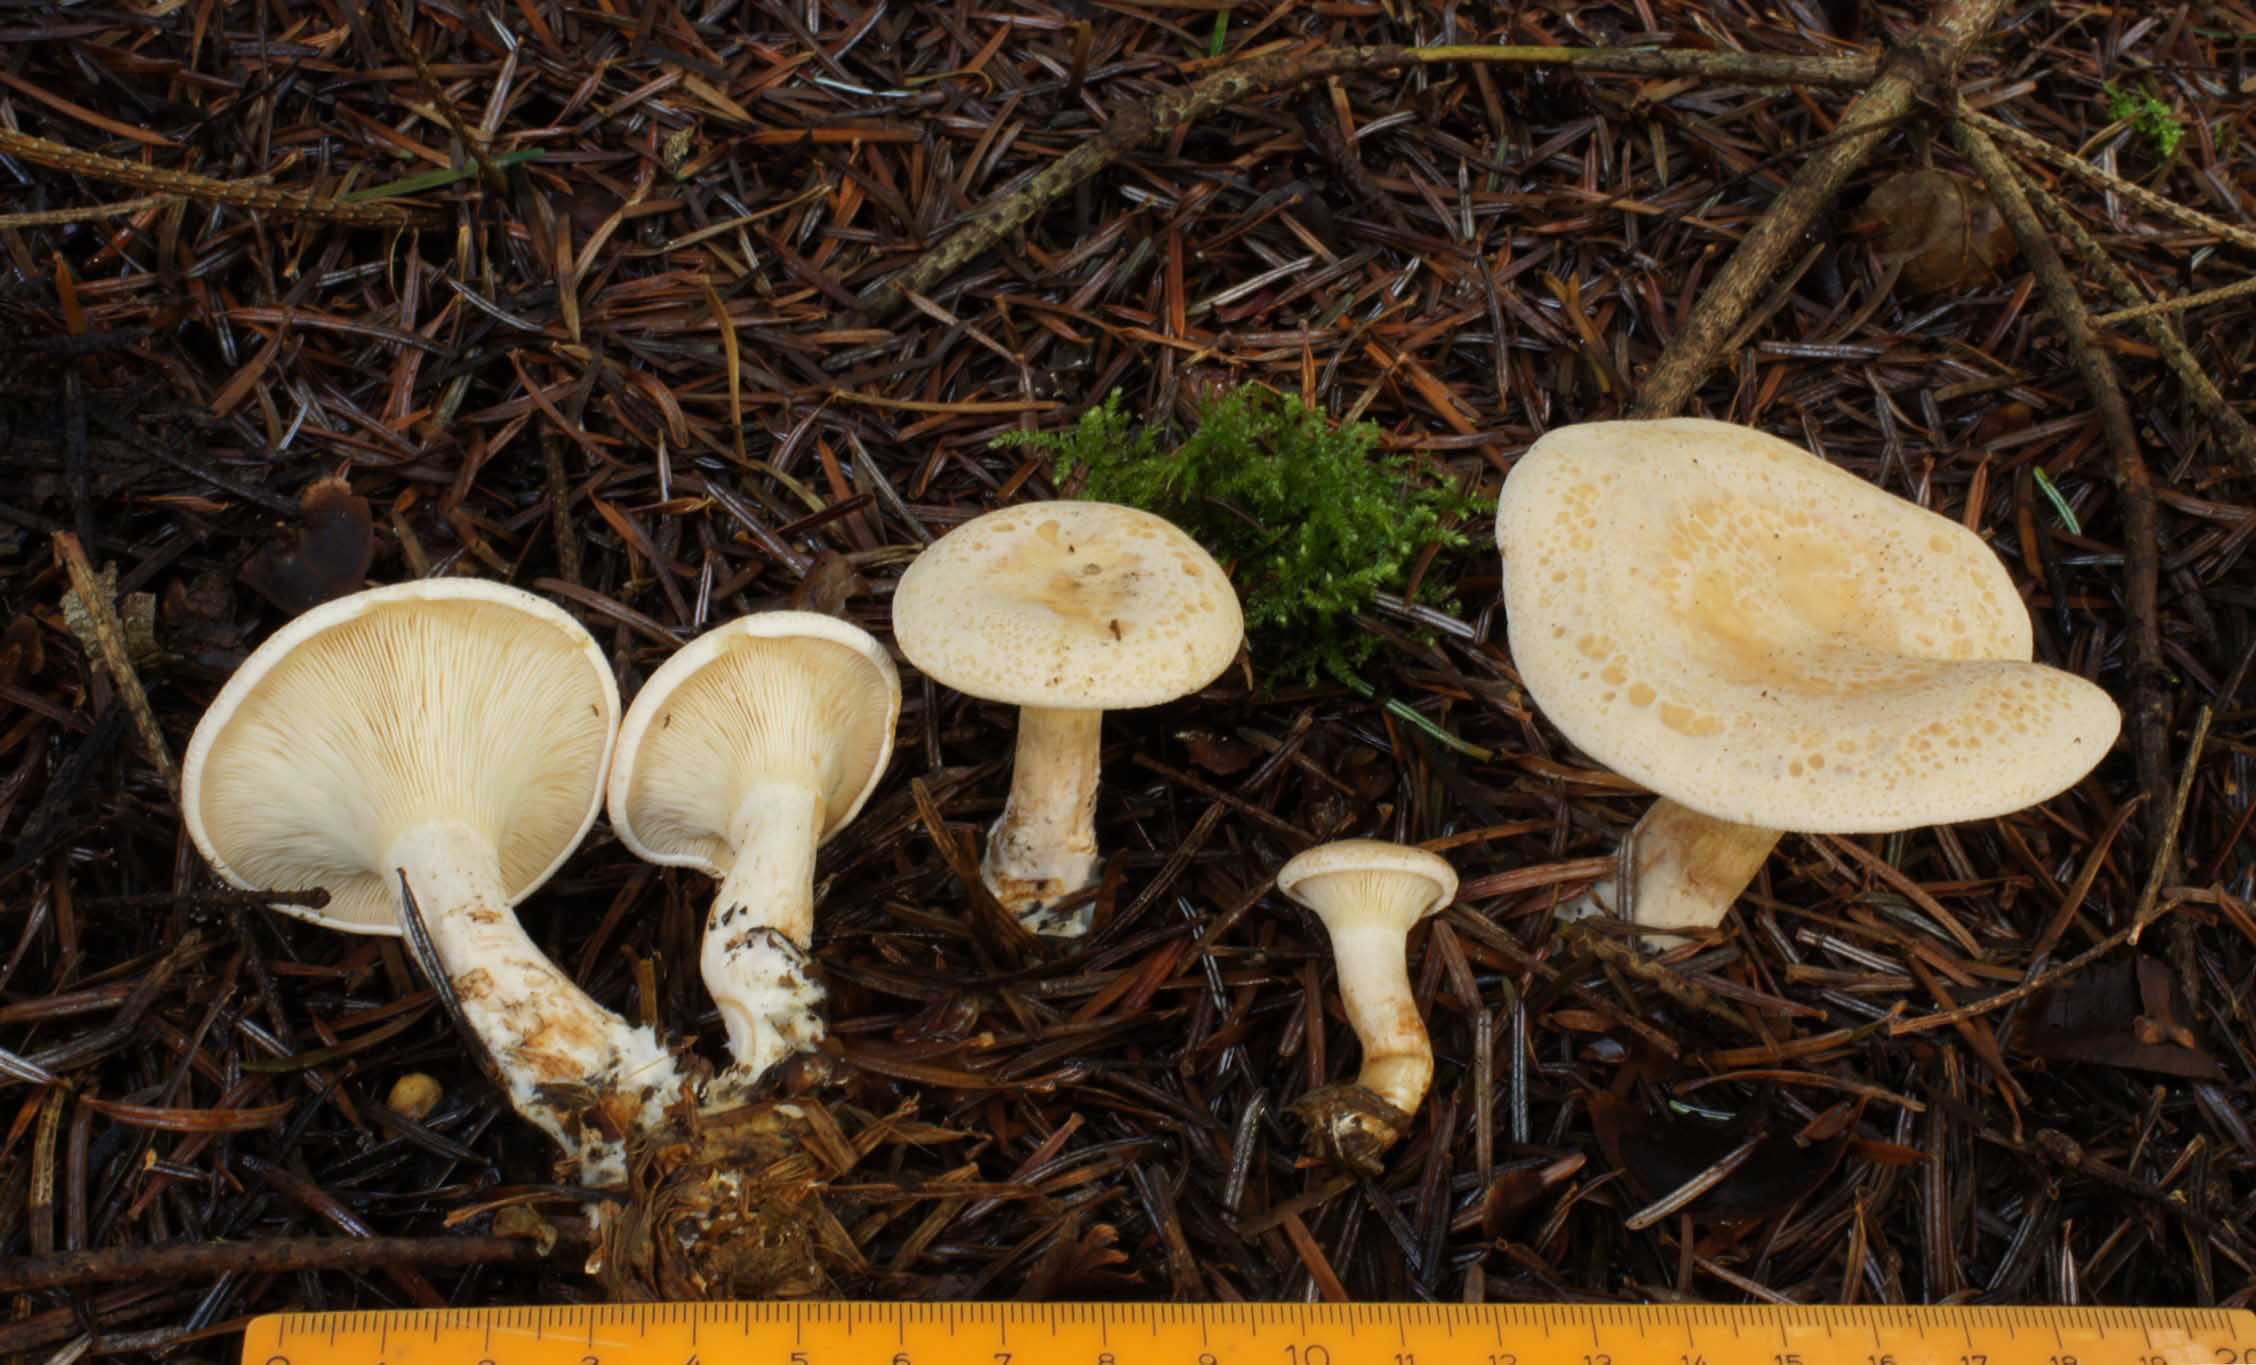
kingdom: Fungi
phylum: Basidiomycota
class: Agaricomycetes
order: Agaricales
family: Tricholomataceae
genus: Paralepista
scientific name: Paralepista gilva
